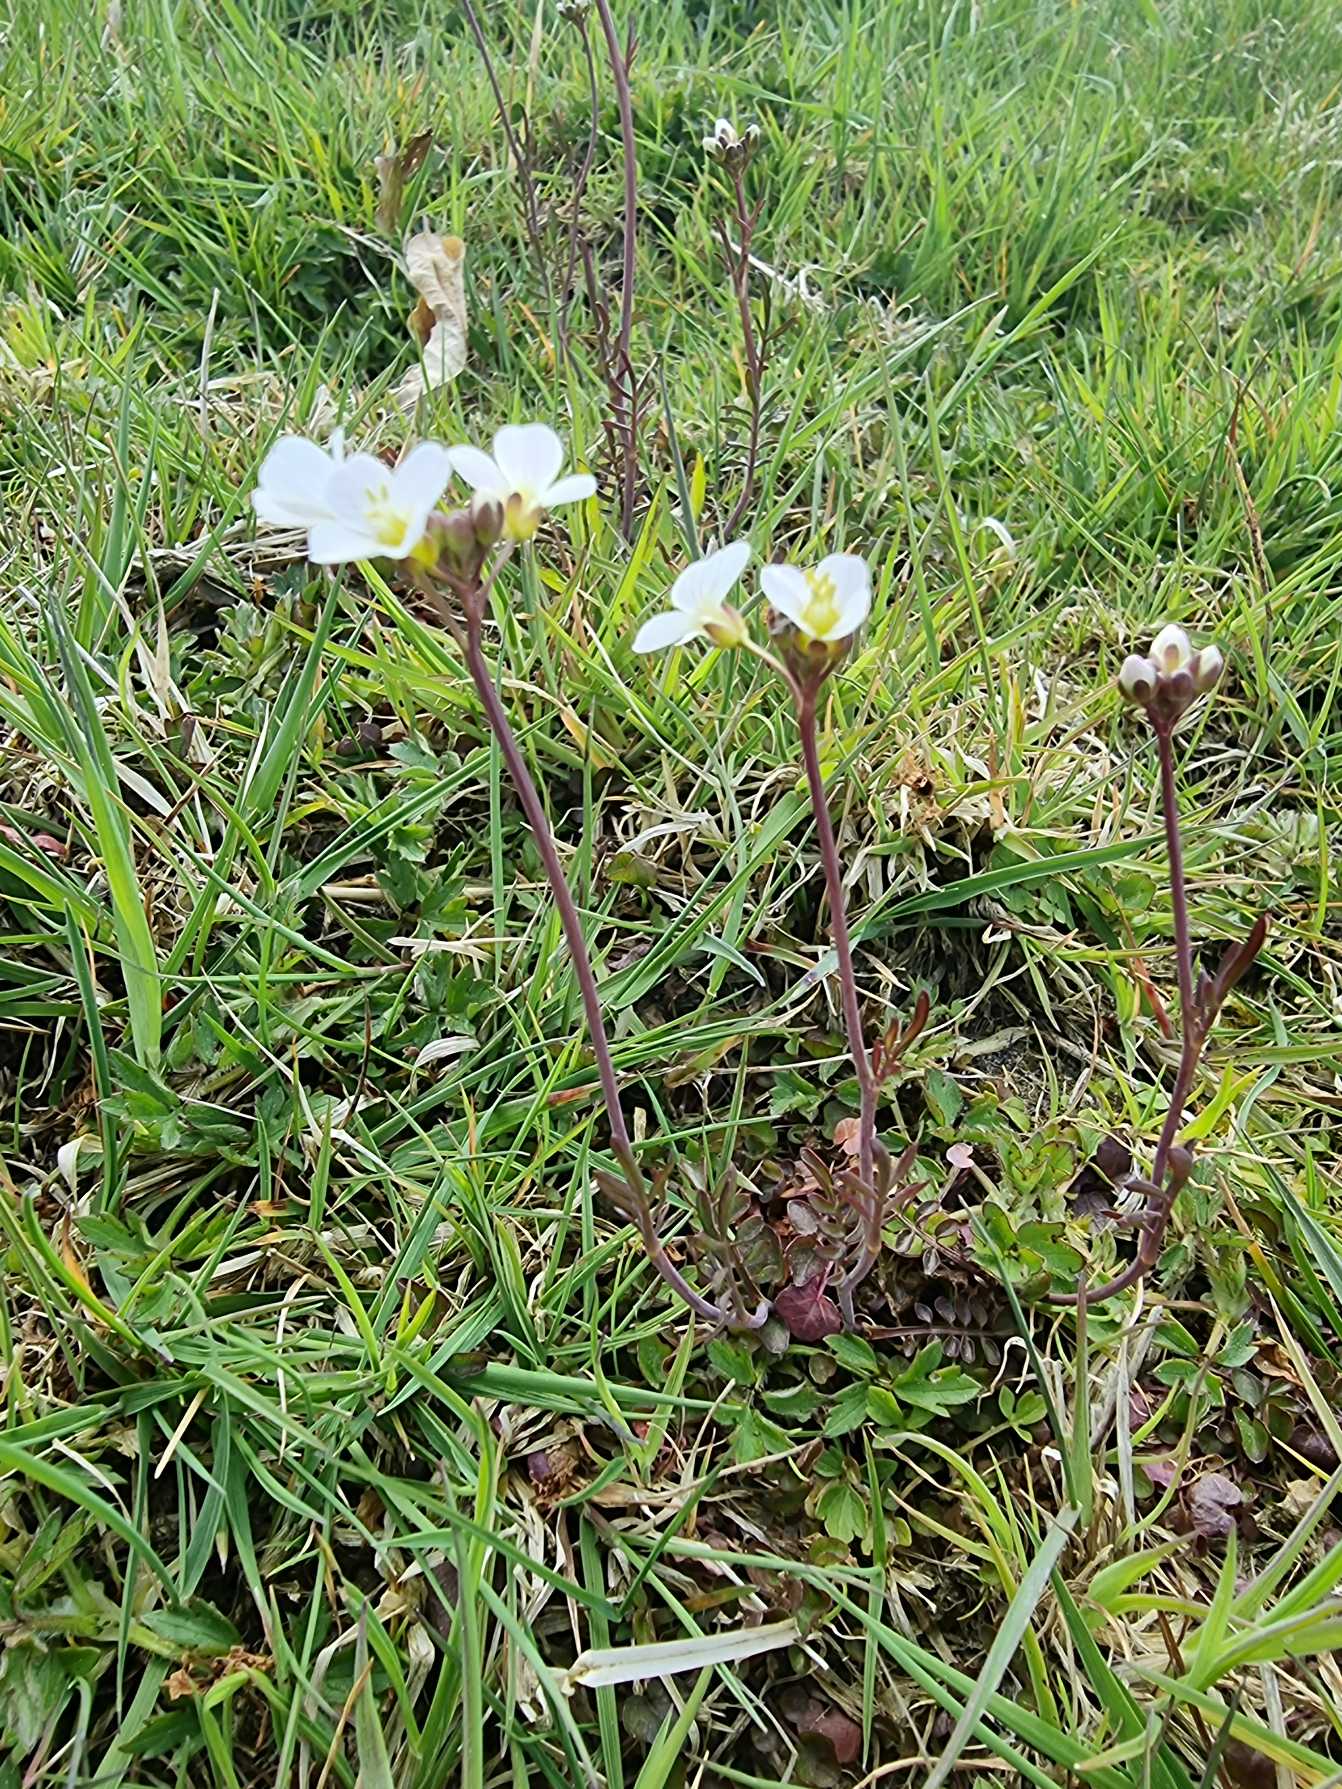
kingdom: Plantae
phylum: Tracheophyta
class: Magnoliopsida
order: Brassicales
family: Brassicaceae
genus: Cardamine
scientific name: Cardamine pratensis
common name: Engkarse
